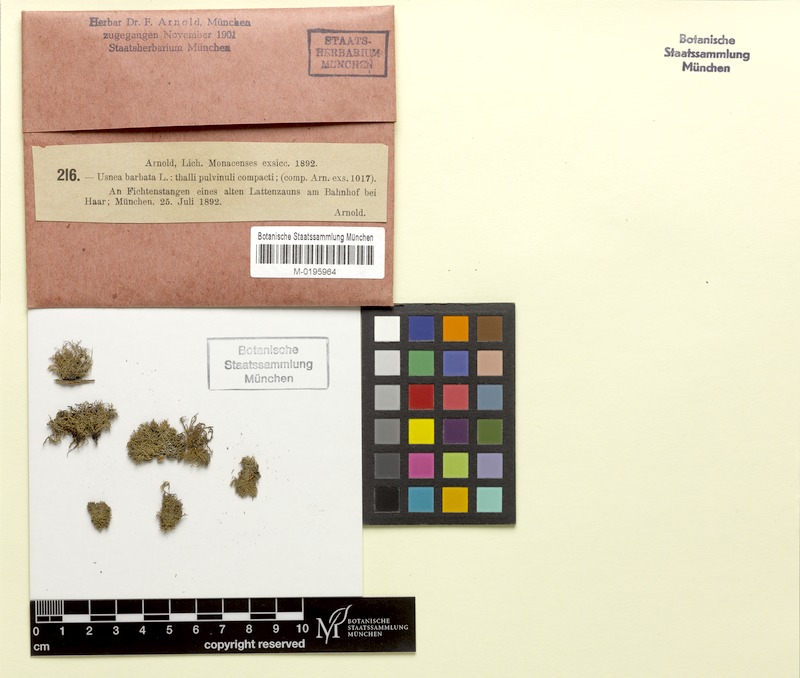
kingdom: Fungi
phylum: Ascomycota
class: Lecanoromycetes
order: Lecanorales
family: Parmeliaceae
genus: Usnea
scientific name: Usnea barbata
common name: Old man's beard lichen
